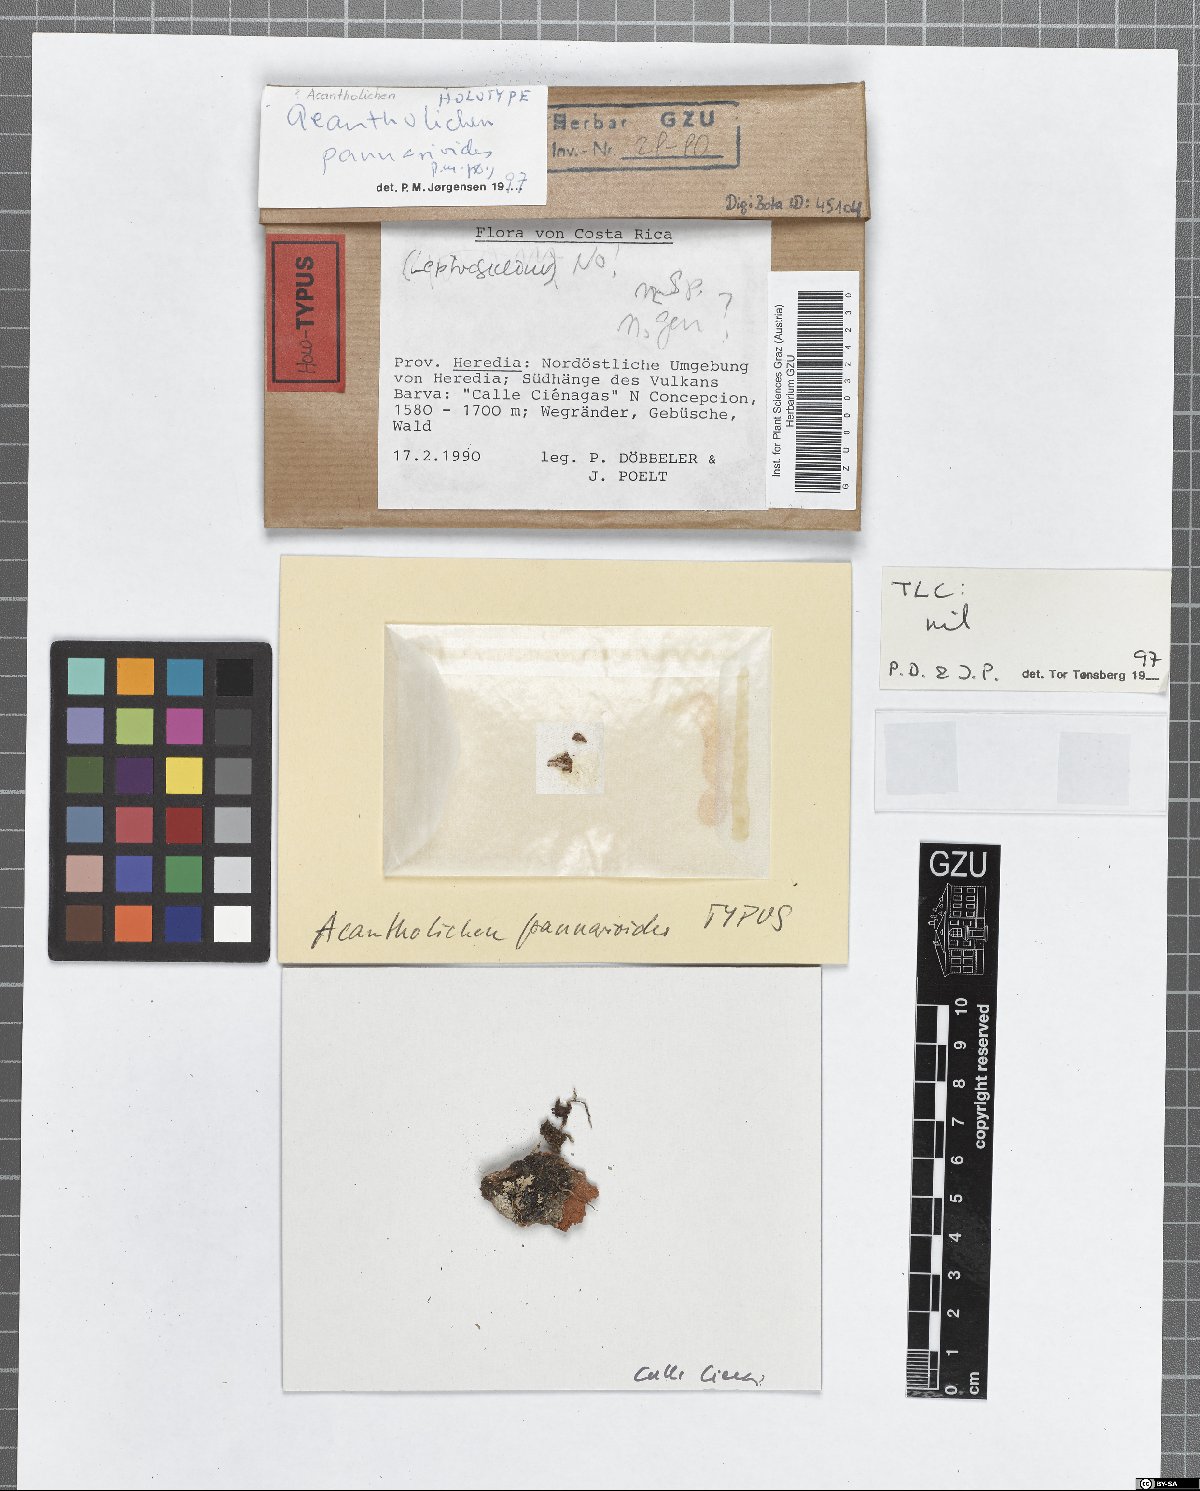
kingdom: Fungi
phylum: Basidiomycota
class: Agaricomycetes
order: Agaricales
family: Hygrophoraceae
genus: Acantholichen
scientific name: Acantholichen pannarioides
